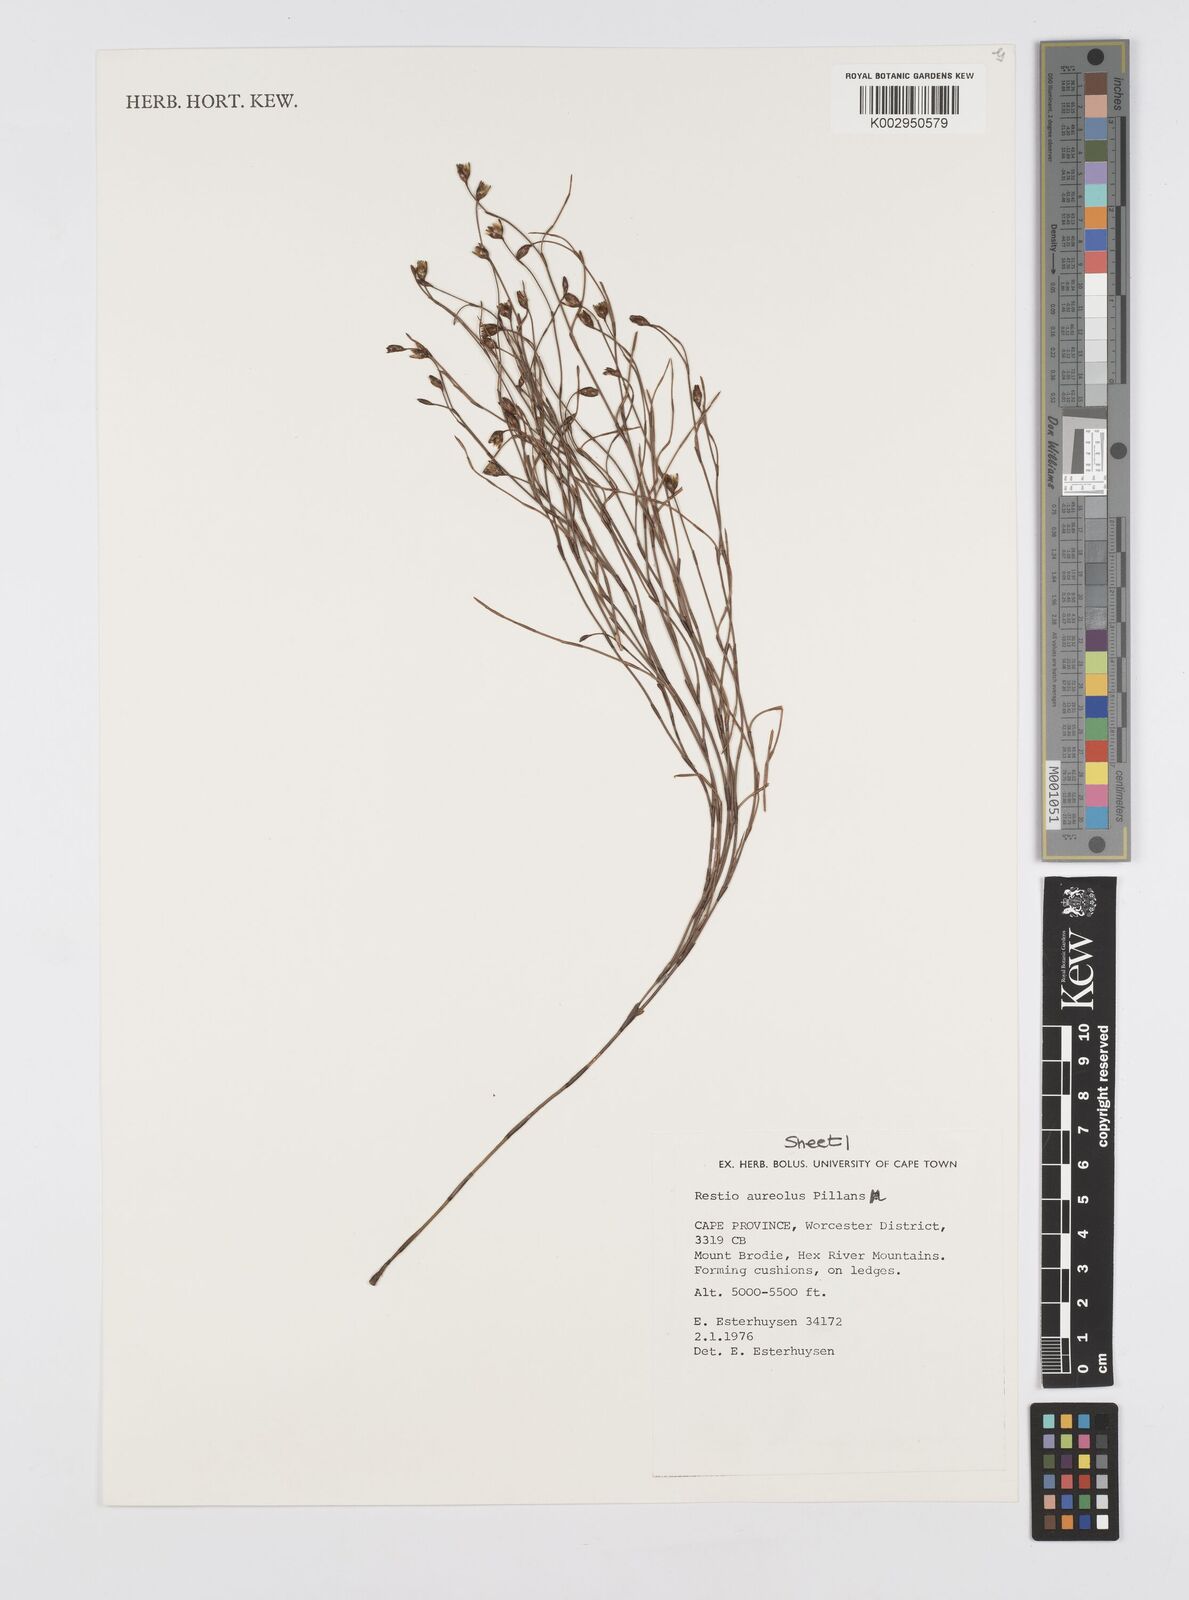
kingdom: Plantae
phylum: Tracheophyta
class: Liliopsida
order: Poales
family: Restionaceae
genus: Restio
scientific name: Restio aureolus
